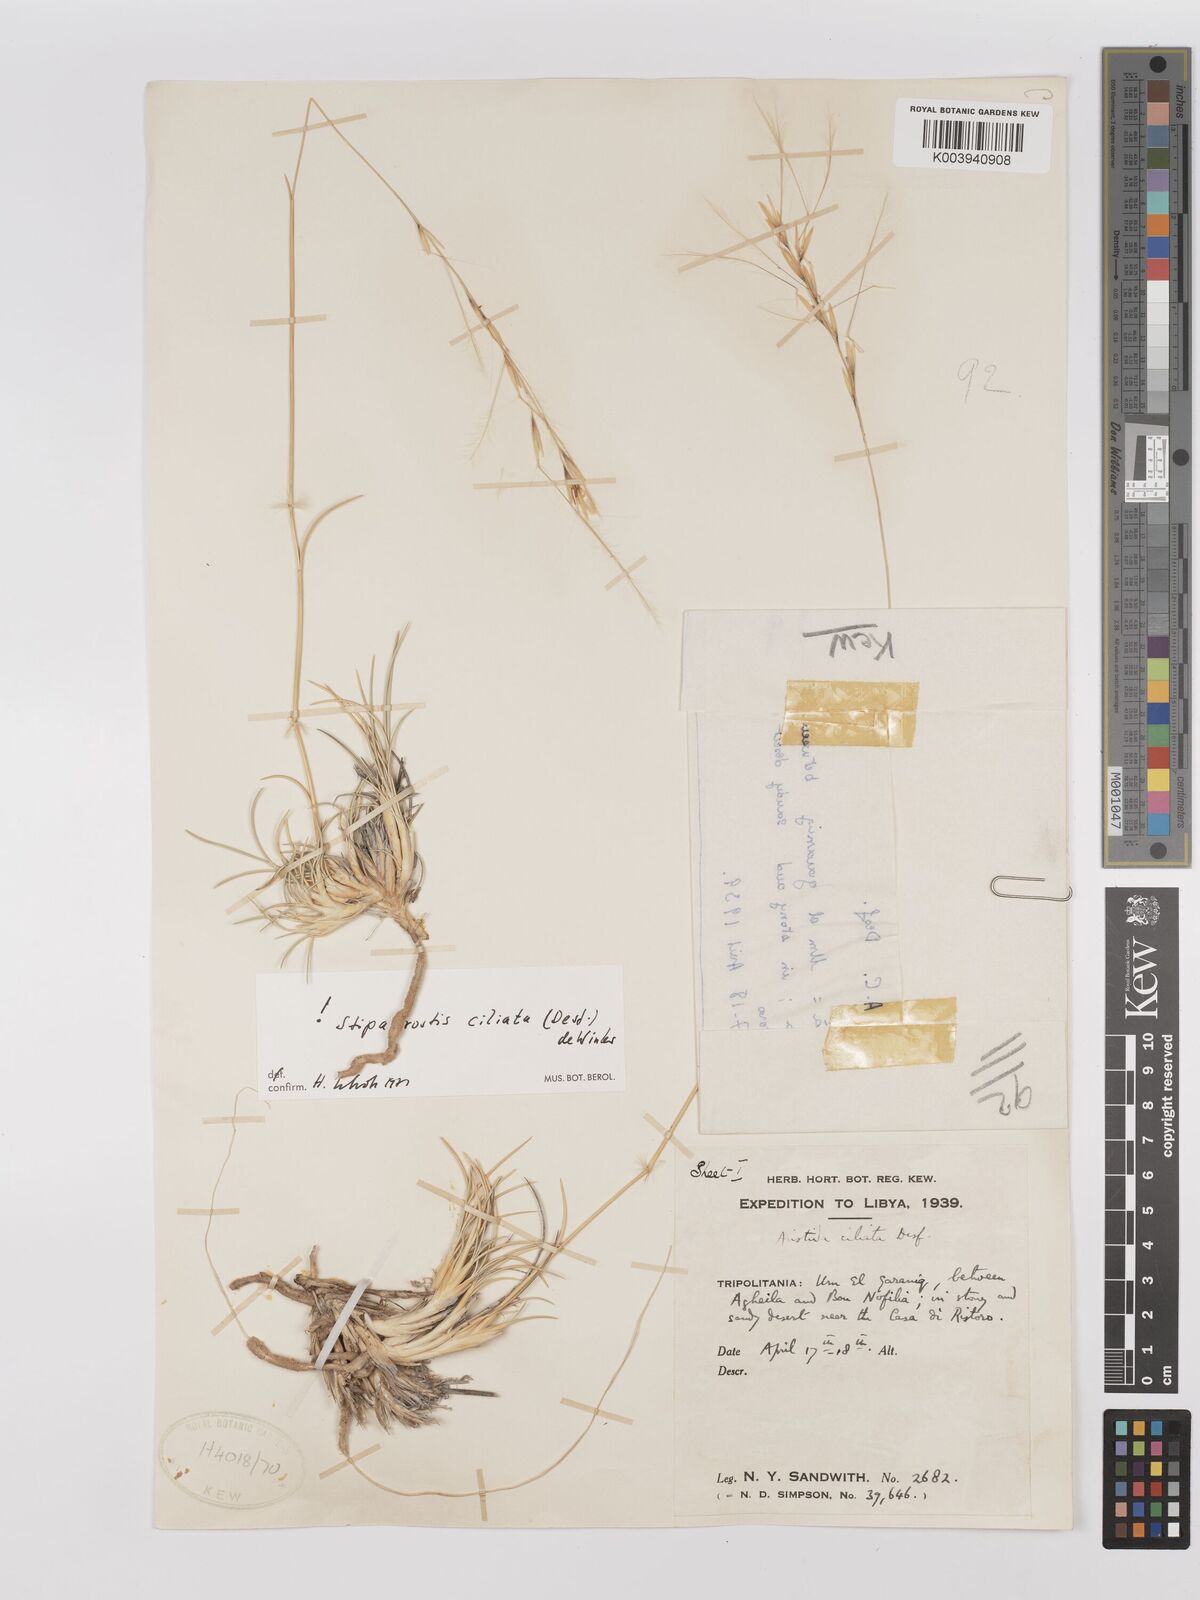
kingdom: Plantae
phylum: Tracheophyta
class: Liliopsida
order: Poales
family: Poaceae
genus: Stipagrostis
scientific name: Stipagrostis ciliata
